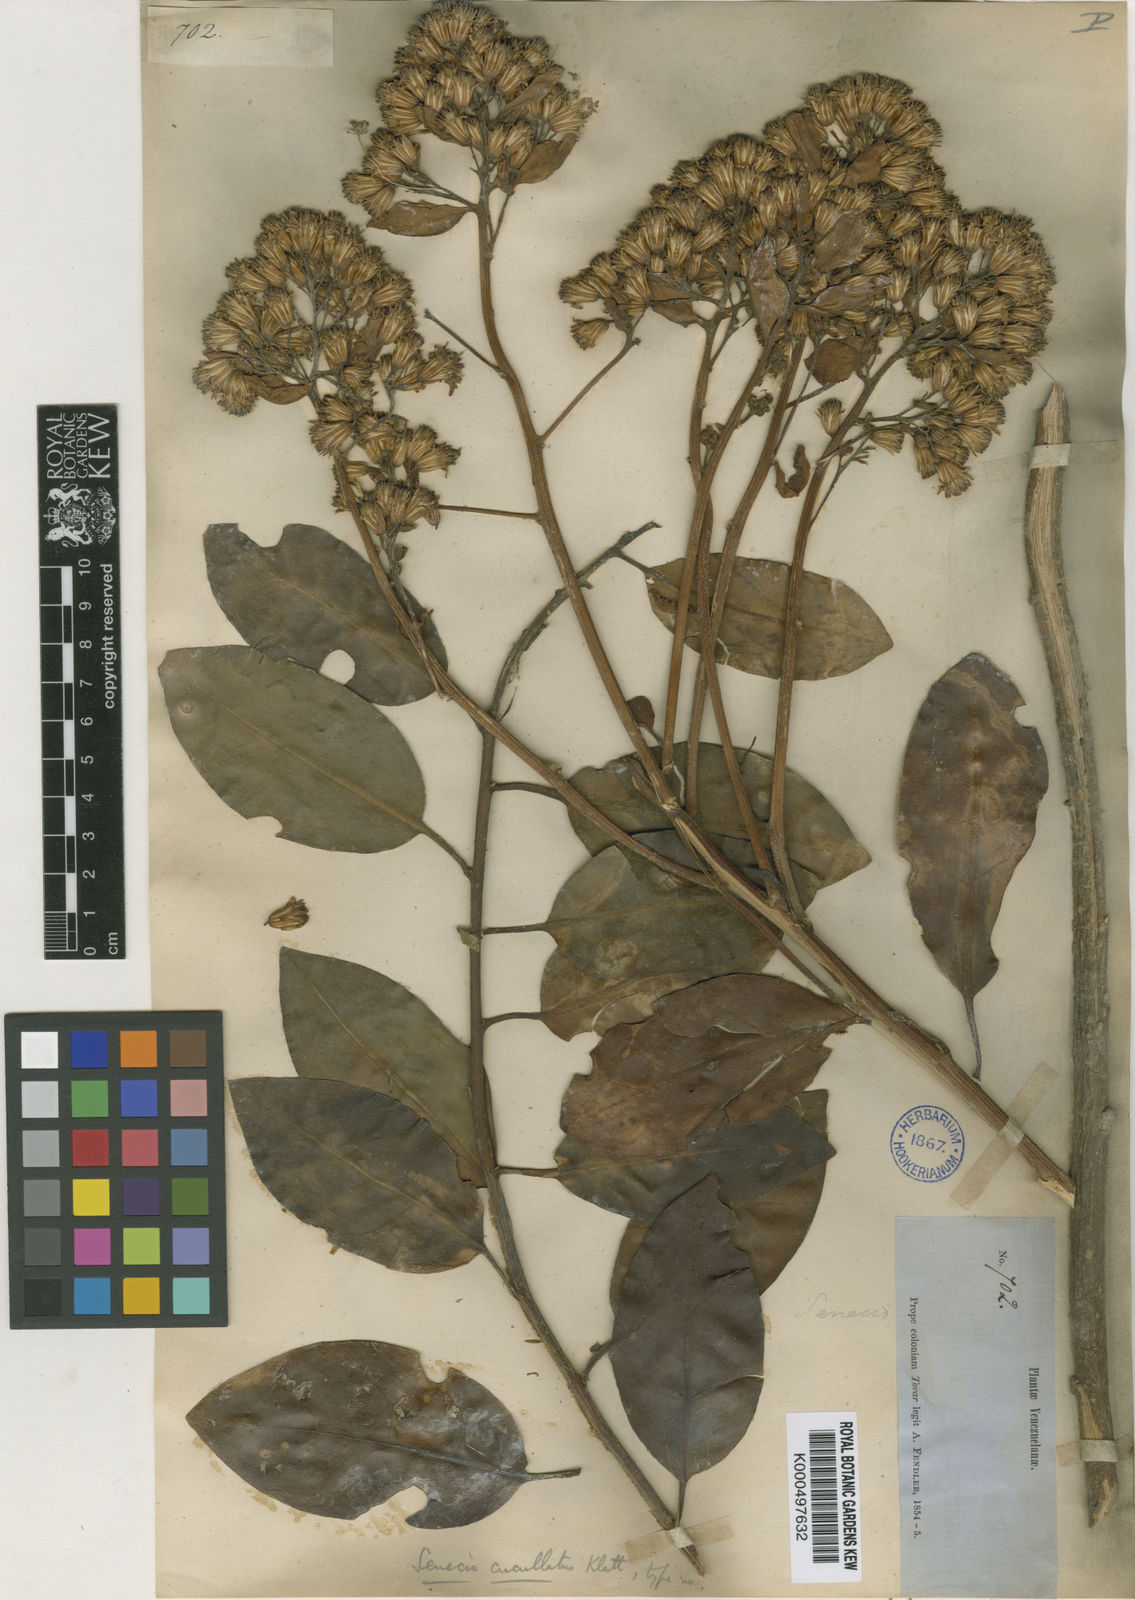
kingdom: Plantae
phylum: Tracheophyta
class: Magnoliopsida
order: Asterales
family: Asteraceae
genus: Pentacalia
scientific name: Pentacalia caracasana
